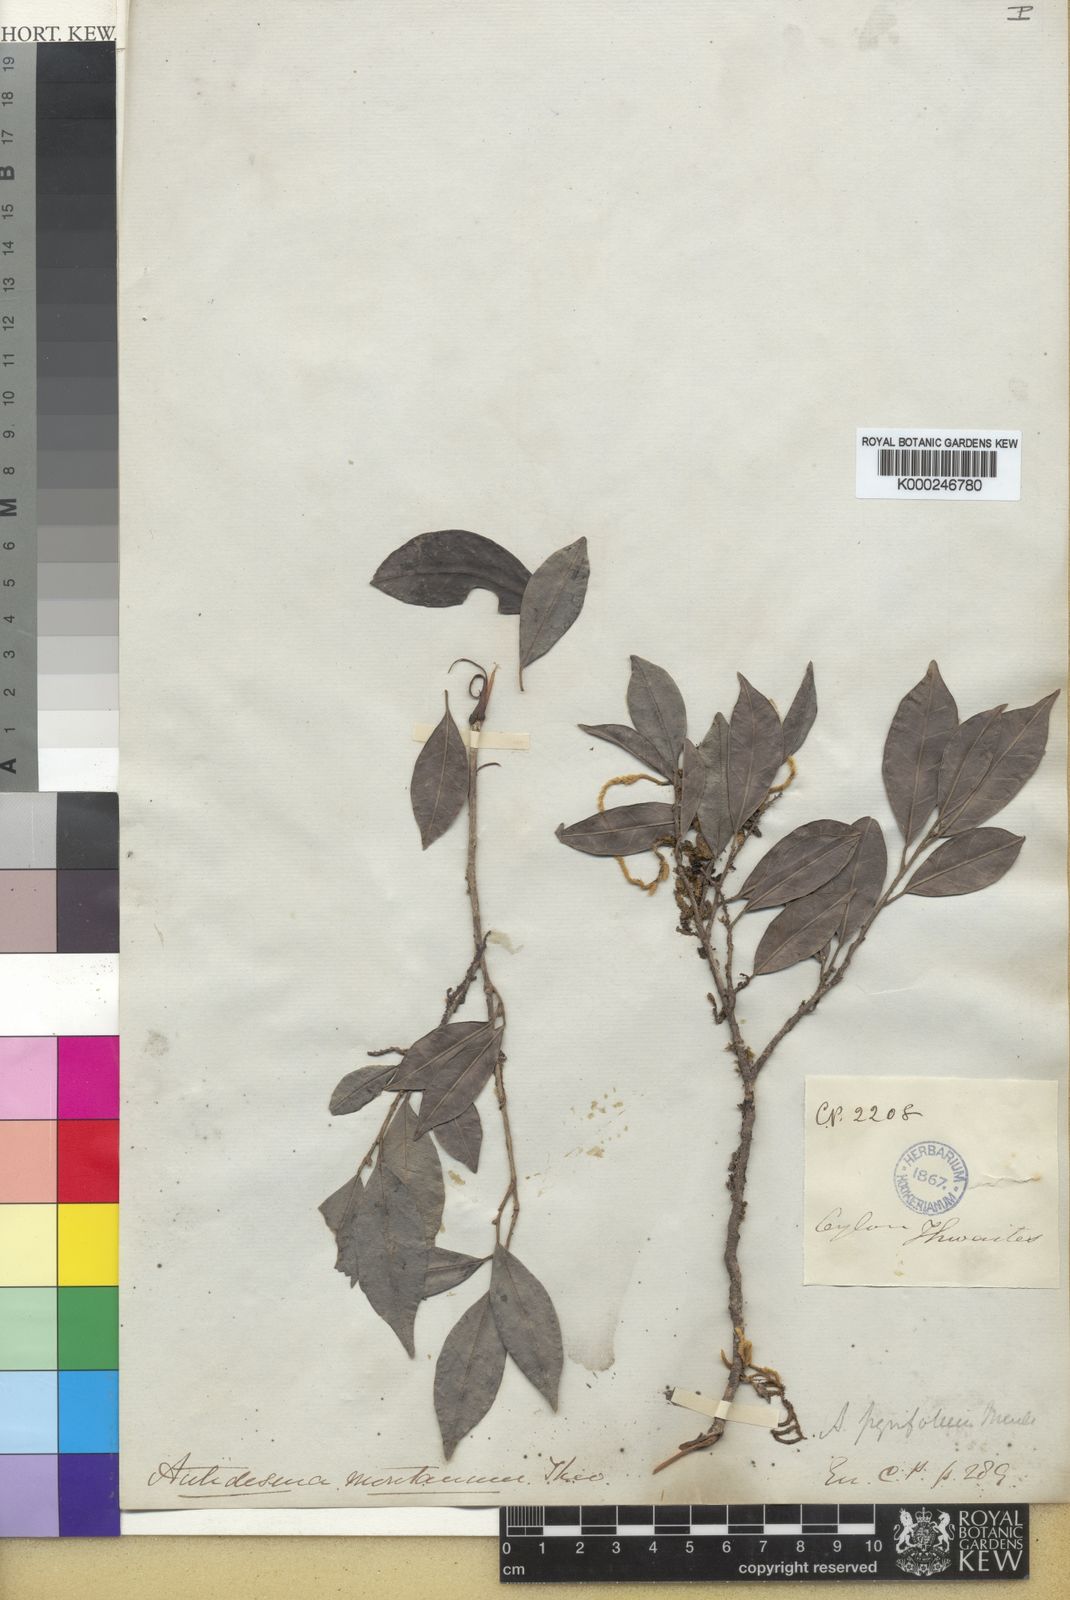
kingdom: Plantae
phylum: Tracheophyta
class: Magnoliopsida
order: Malpighiales
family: Phyllanthaceae
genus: Antidesma
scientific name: Antidesma
